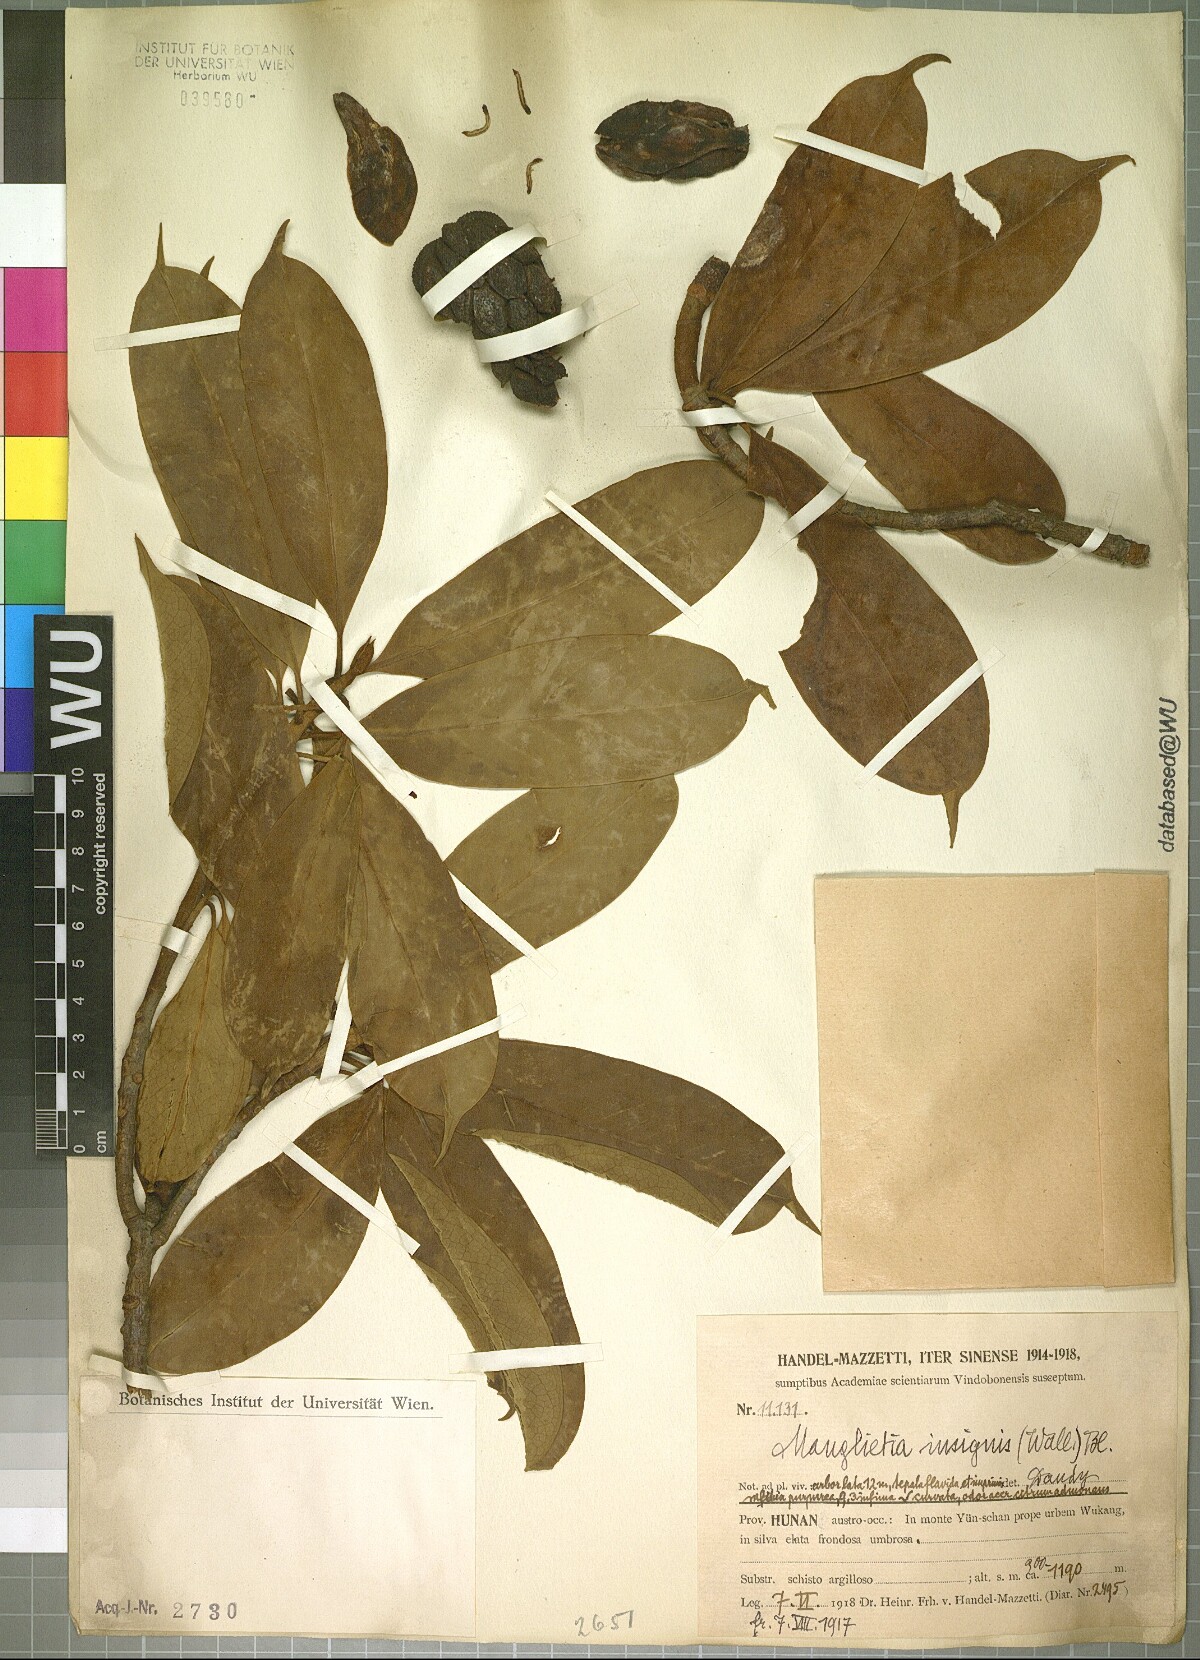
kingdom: Plantae
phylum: Tracheophyta
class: Magnoliopsida
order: Magnoliales
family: Magnoliaceae
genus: Magnolia
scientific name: Magnolia insignis
